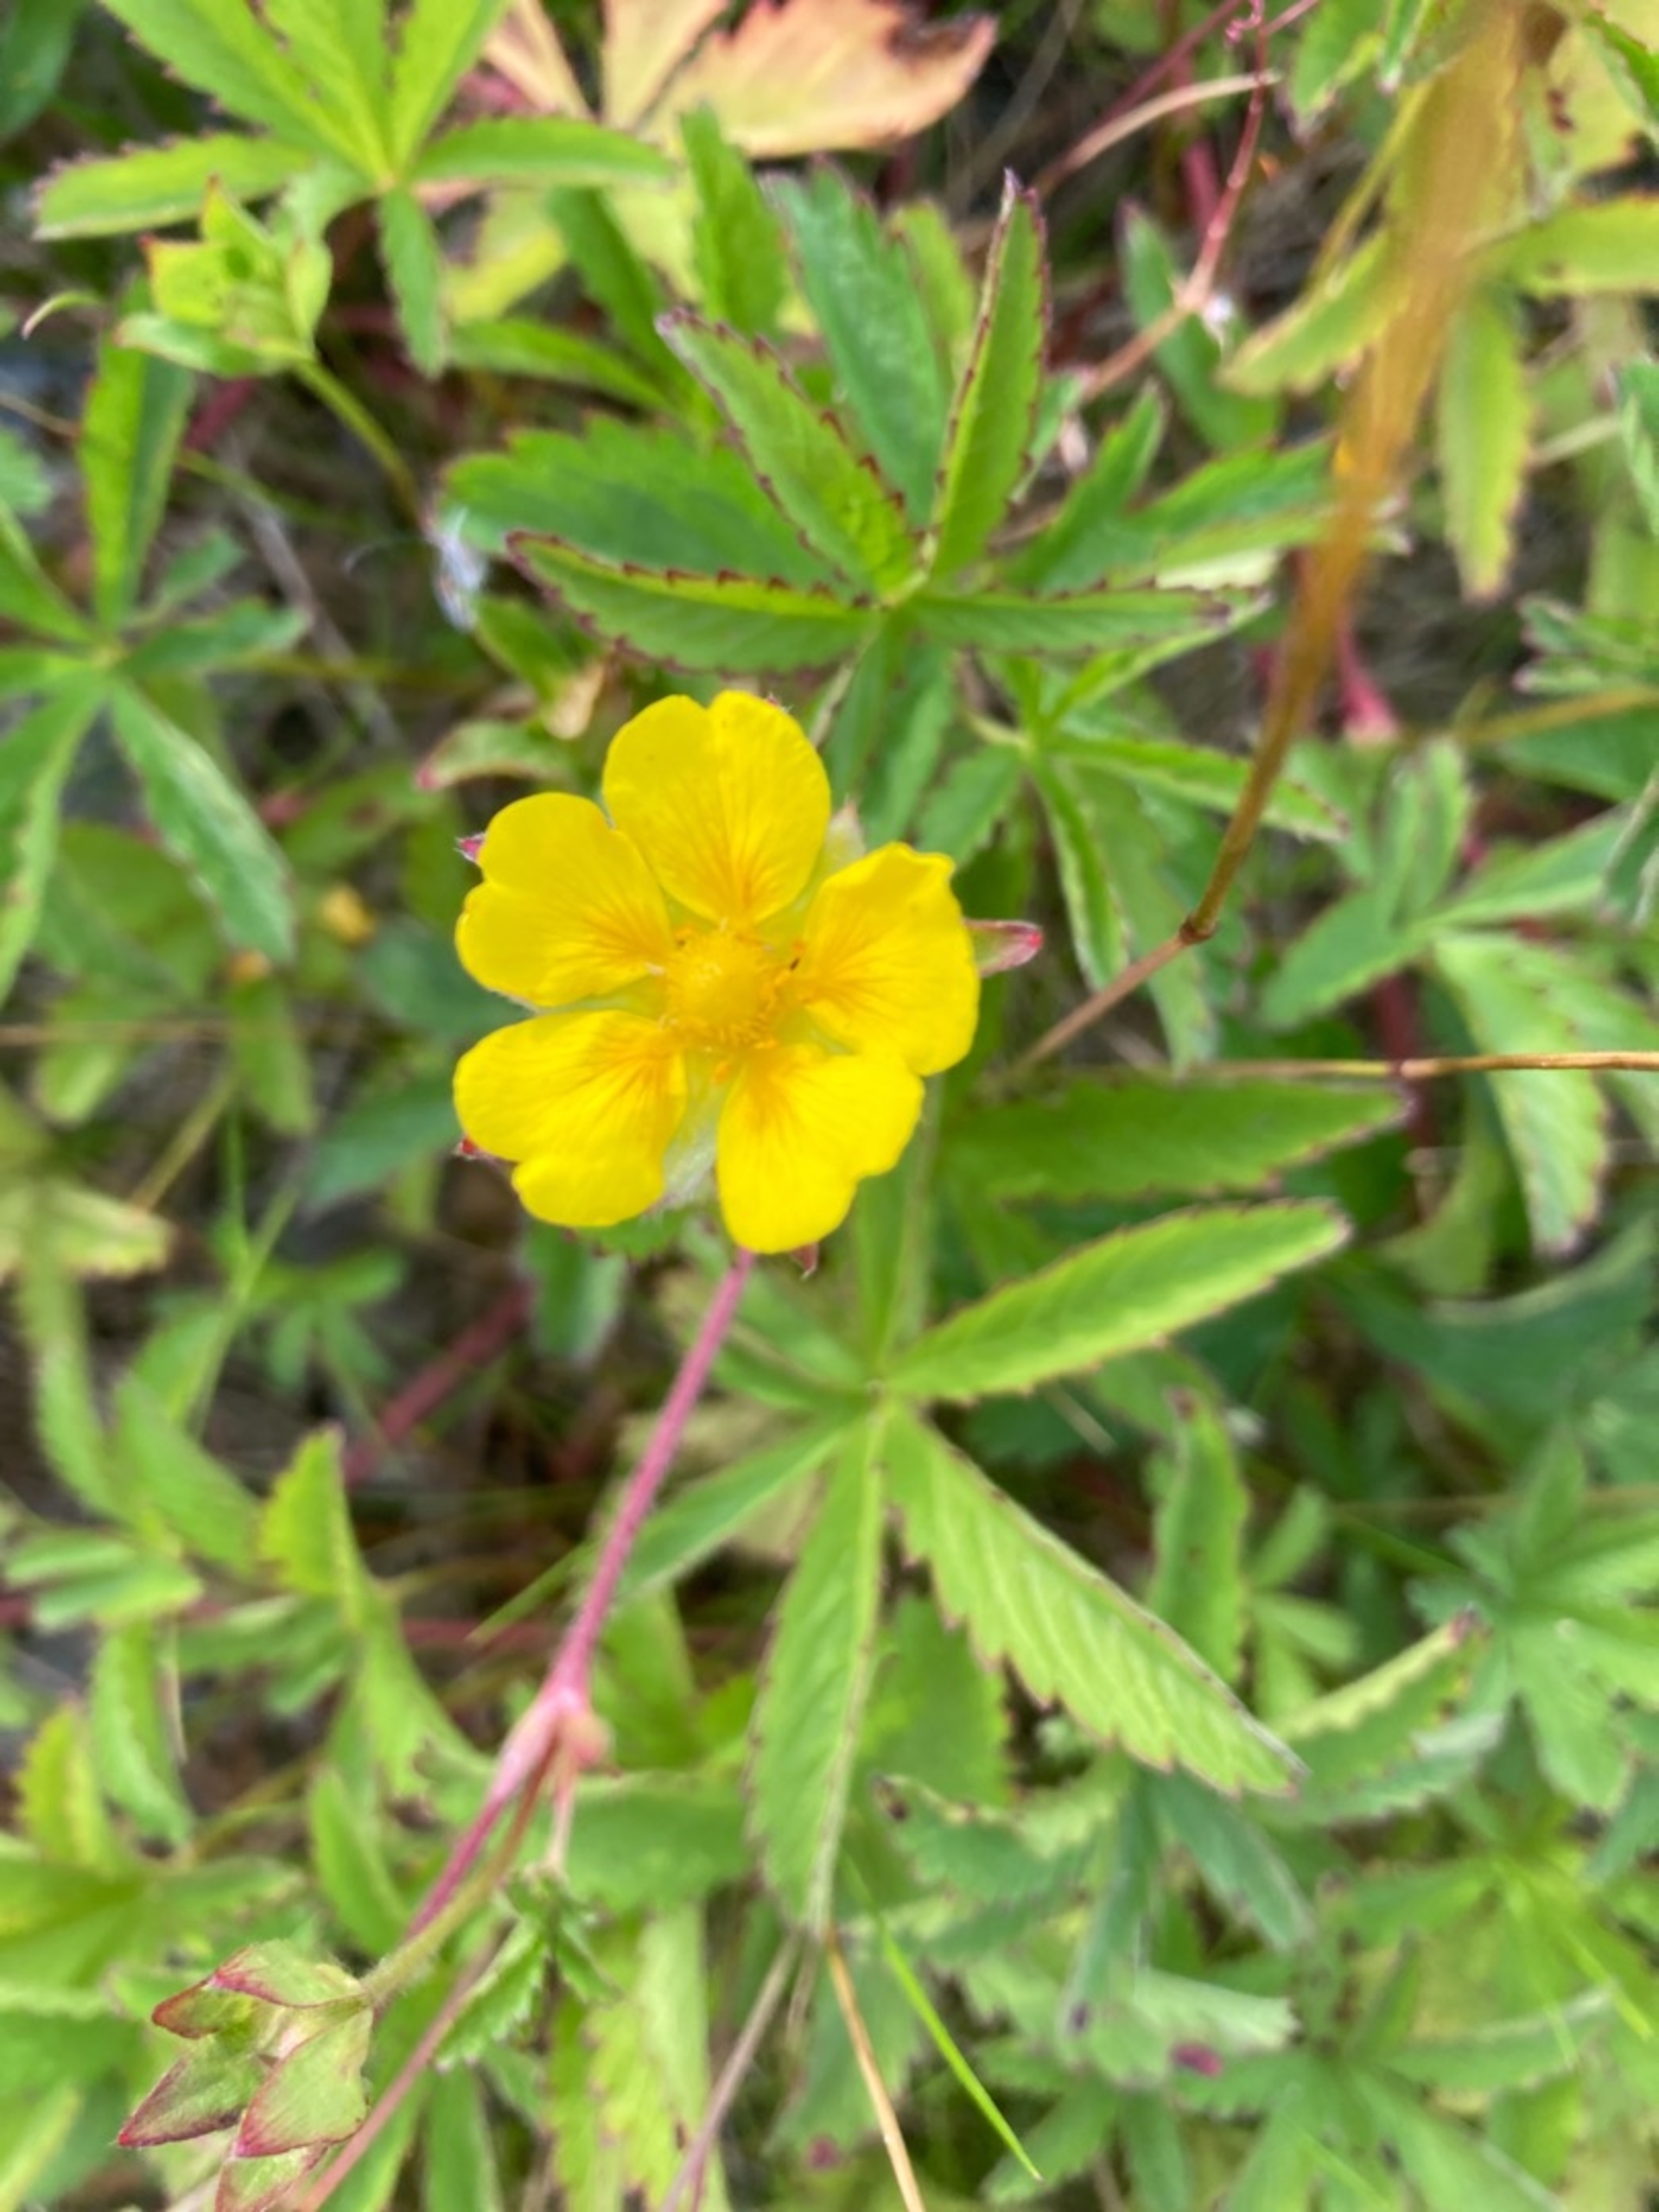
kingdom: Plantae
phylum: Tracheophyta
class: Magnoliopsida
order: Rosales
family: Rosaceae
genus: Potentilla
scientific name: Potentilla reptans
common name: Krybende potentil
